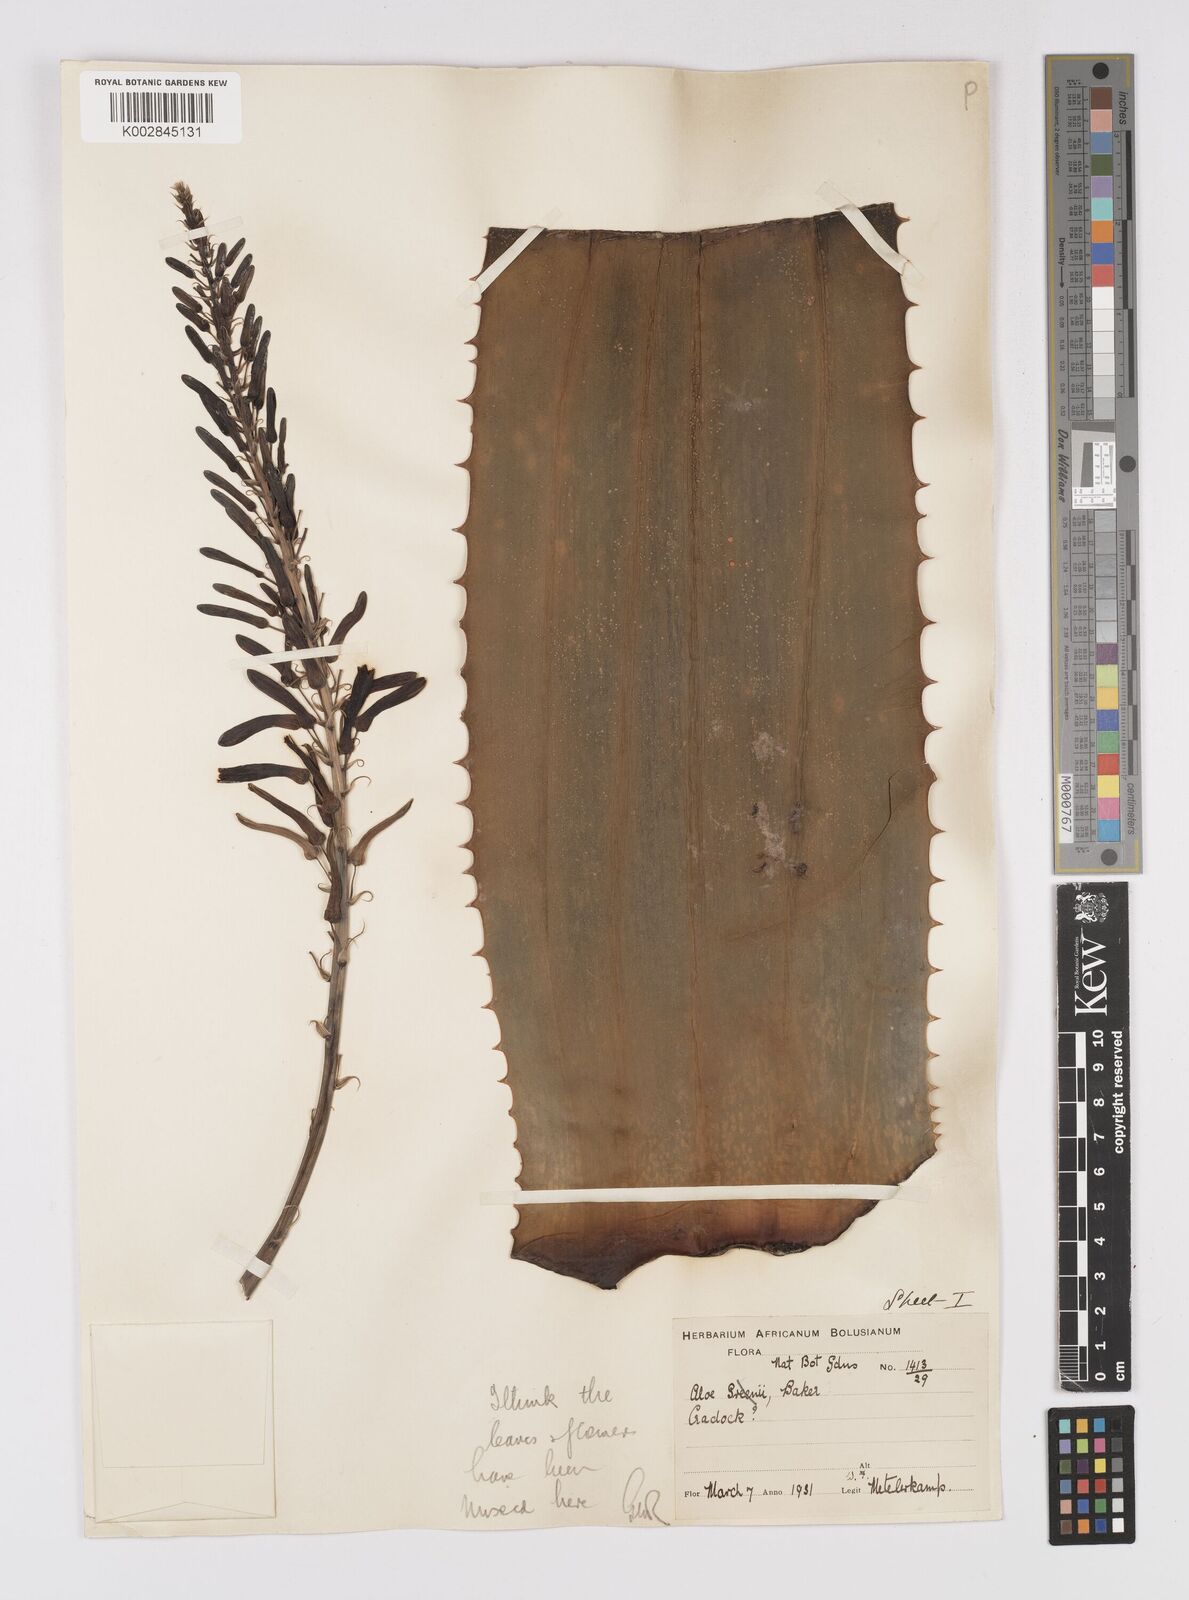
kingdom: Plantae
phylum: Tracheophyta
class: Liliopsida
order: Asparagales
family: Asphodelaceae
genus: Aloe
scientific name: Aloe greenii
